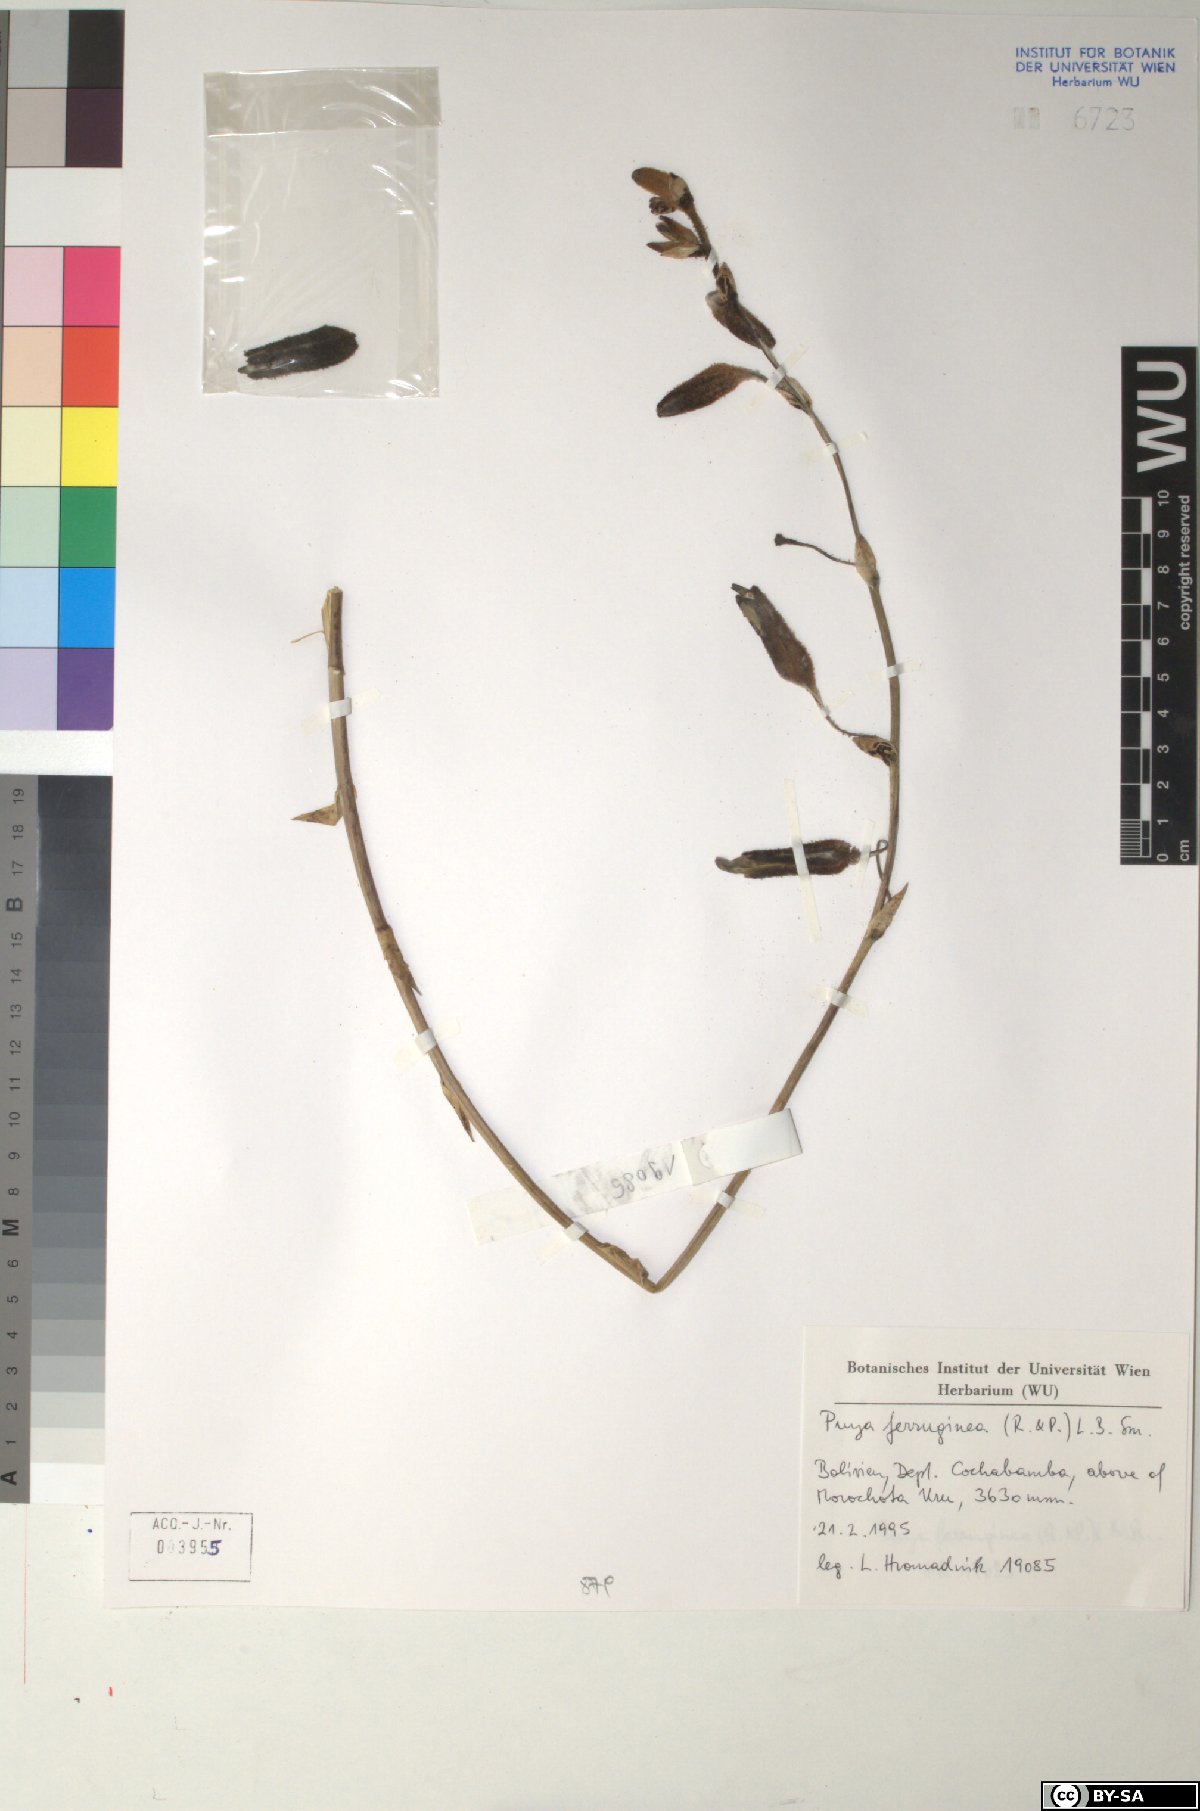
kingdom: Plantae
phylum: Tracheophyta
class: Liliopsida
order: Poales
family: Bromeliaceae
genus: Puya
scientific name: Puya ferruginea
